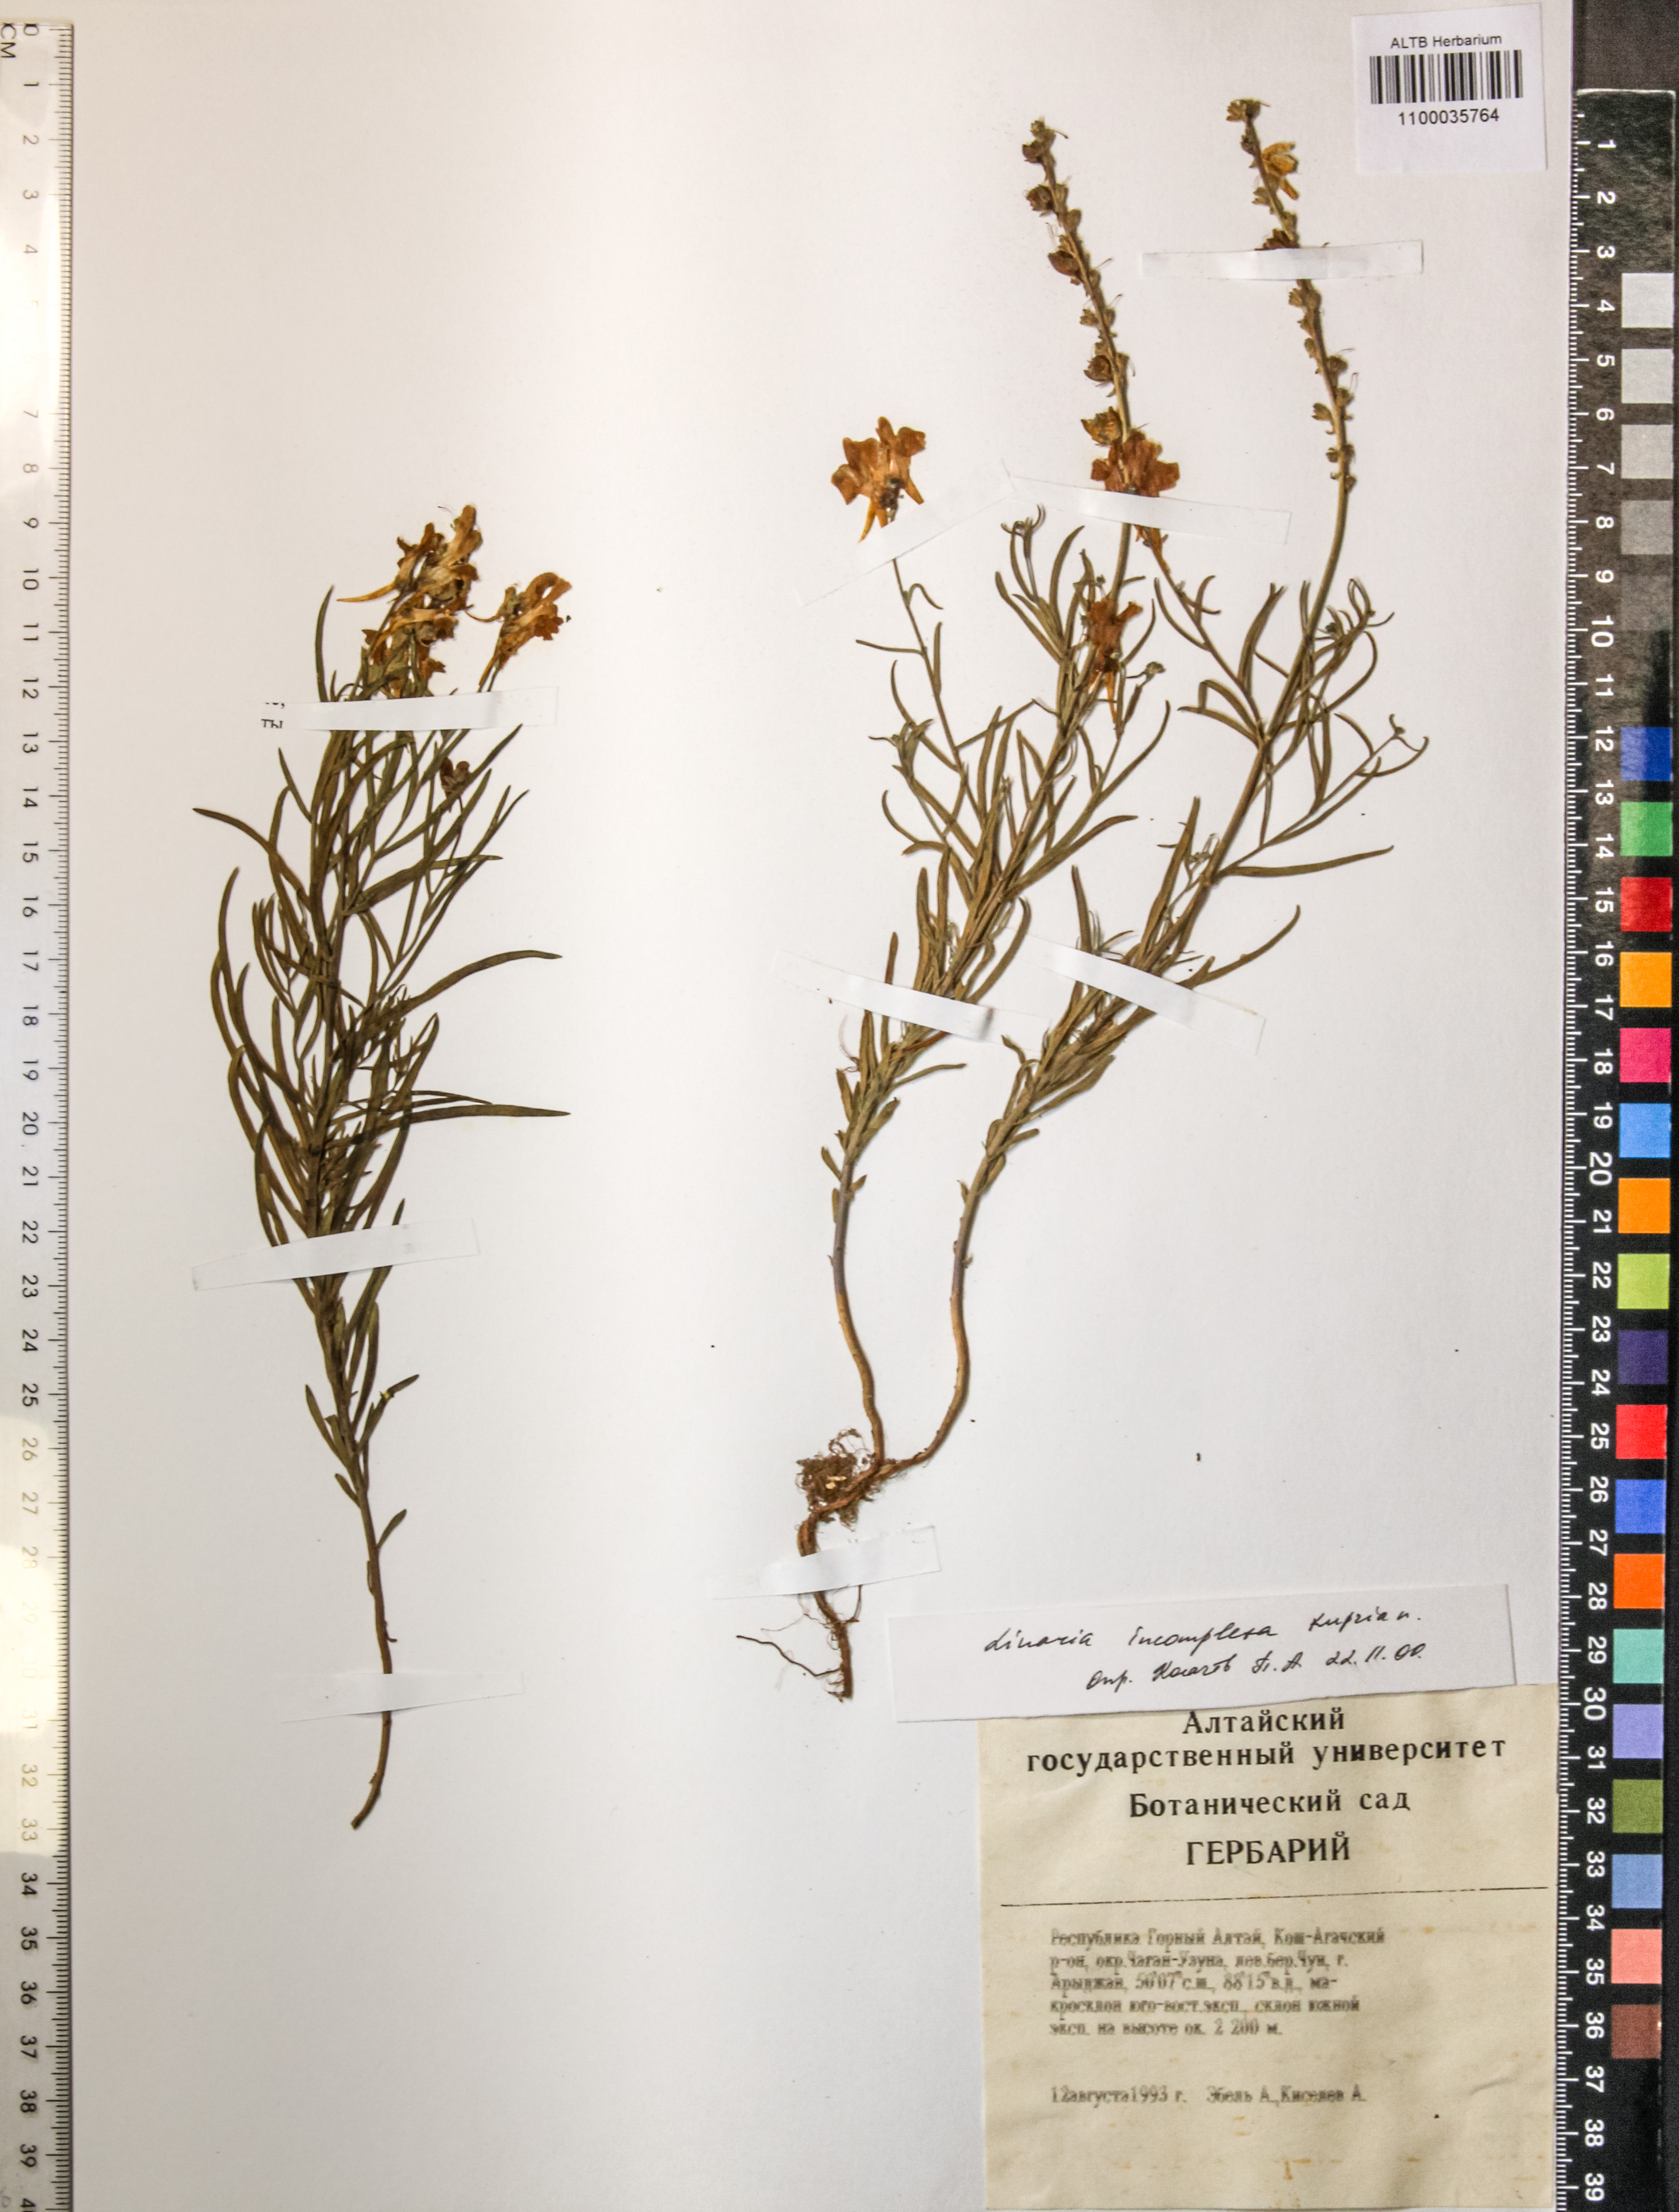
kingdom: Plantae
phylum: Tracheophyta
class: Magnoliopsida
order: Lamiales
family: Plantaginaceae
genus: Linaria
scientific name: Linaria incompleta
